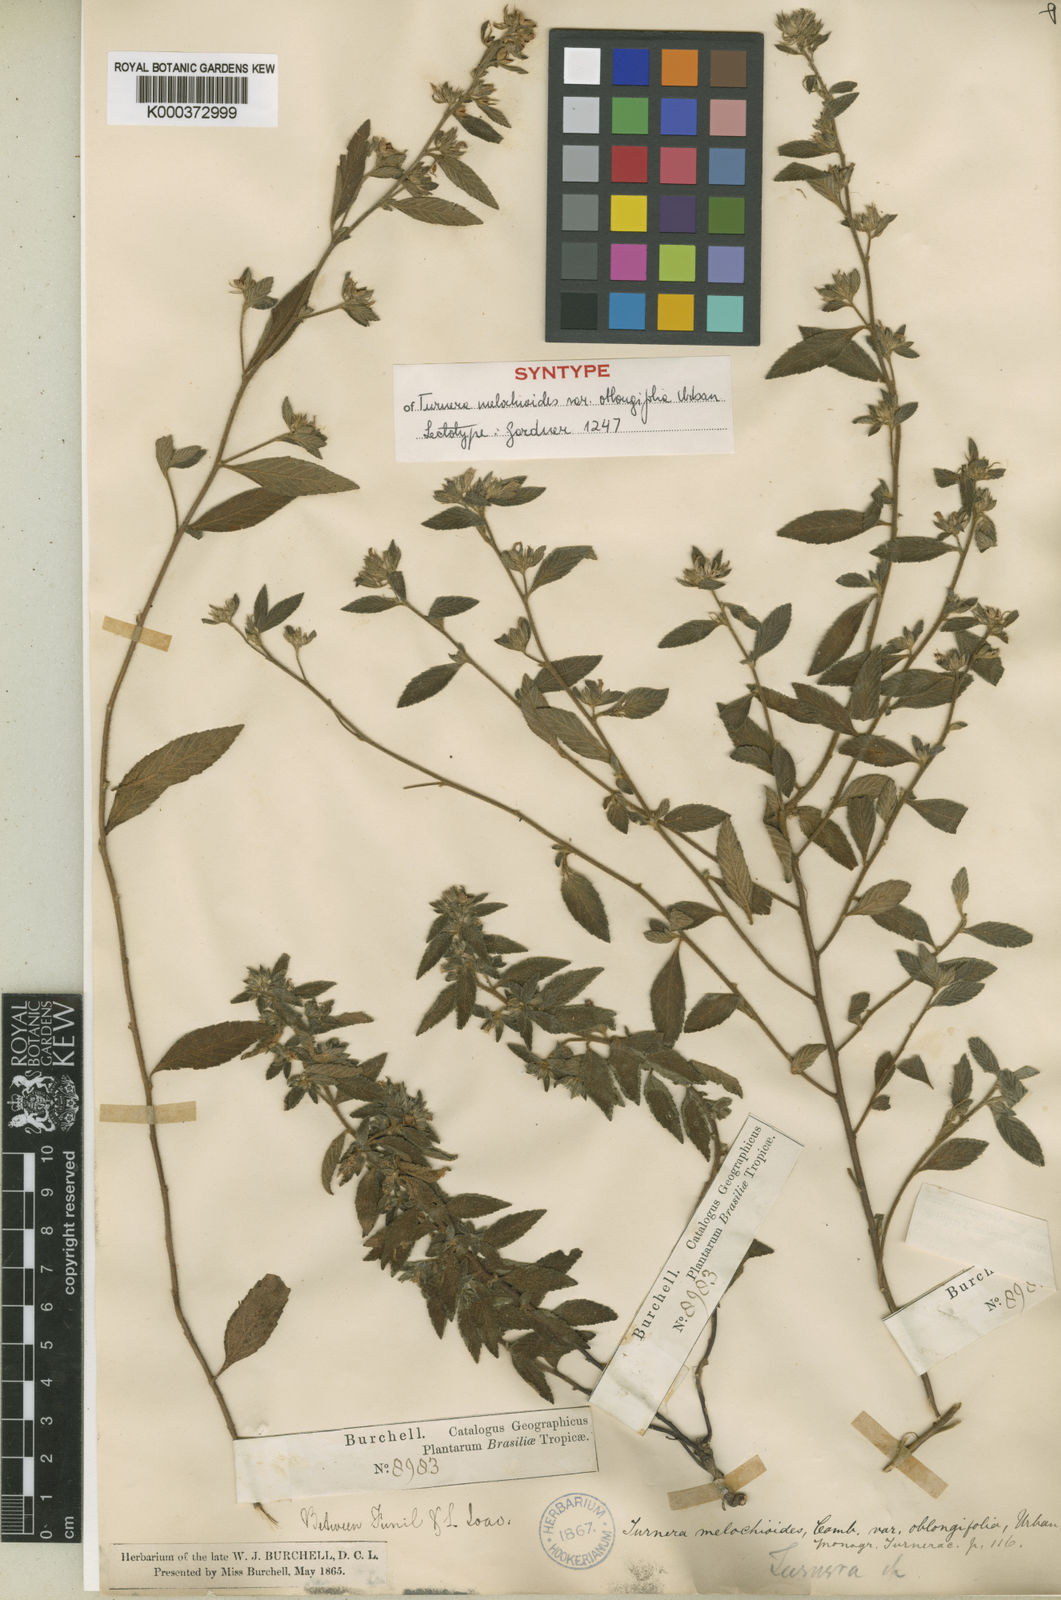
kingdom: Plantae
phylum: Tracheophyta
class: Magnoliopsida
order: Malpighiales
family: Turneraceae
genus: Turnera
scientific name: Turnera arenaria
